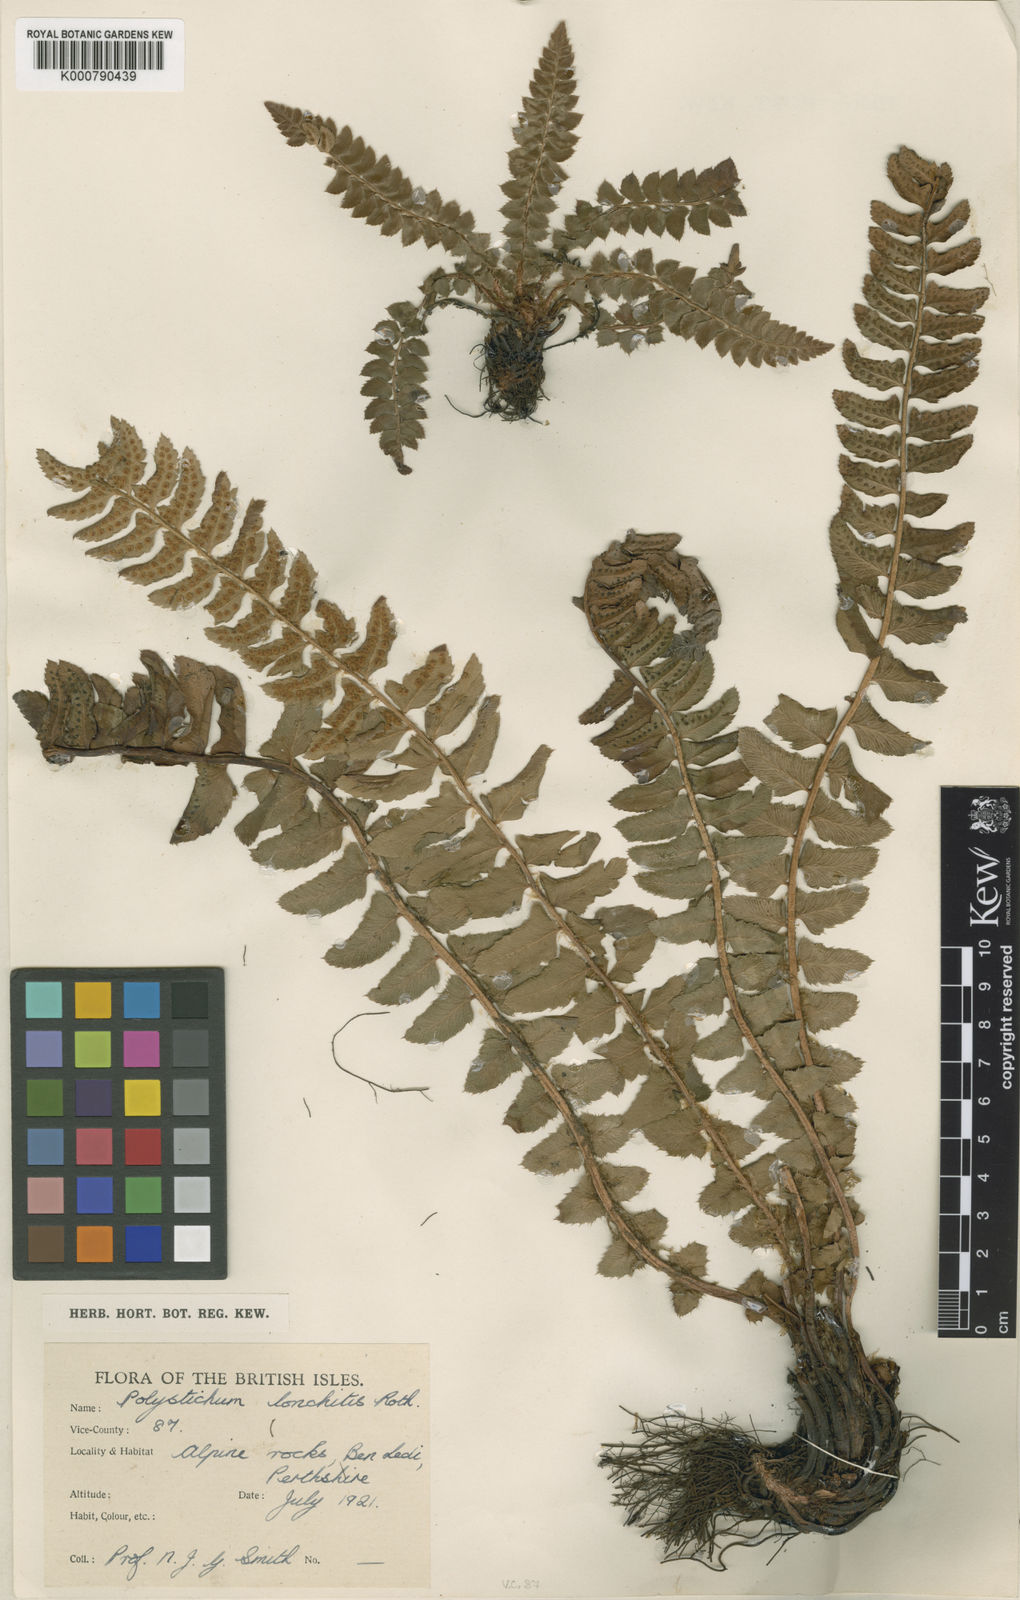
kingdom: Plantae
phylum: Tracheophyta
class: Polypodiopsida
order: Polypodiales
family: Dryopteridaceae
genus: Polystichum
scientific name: Polystichum
